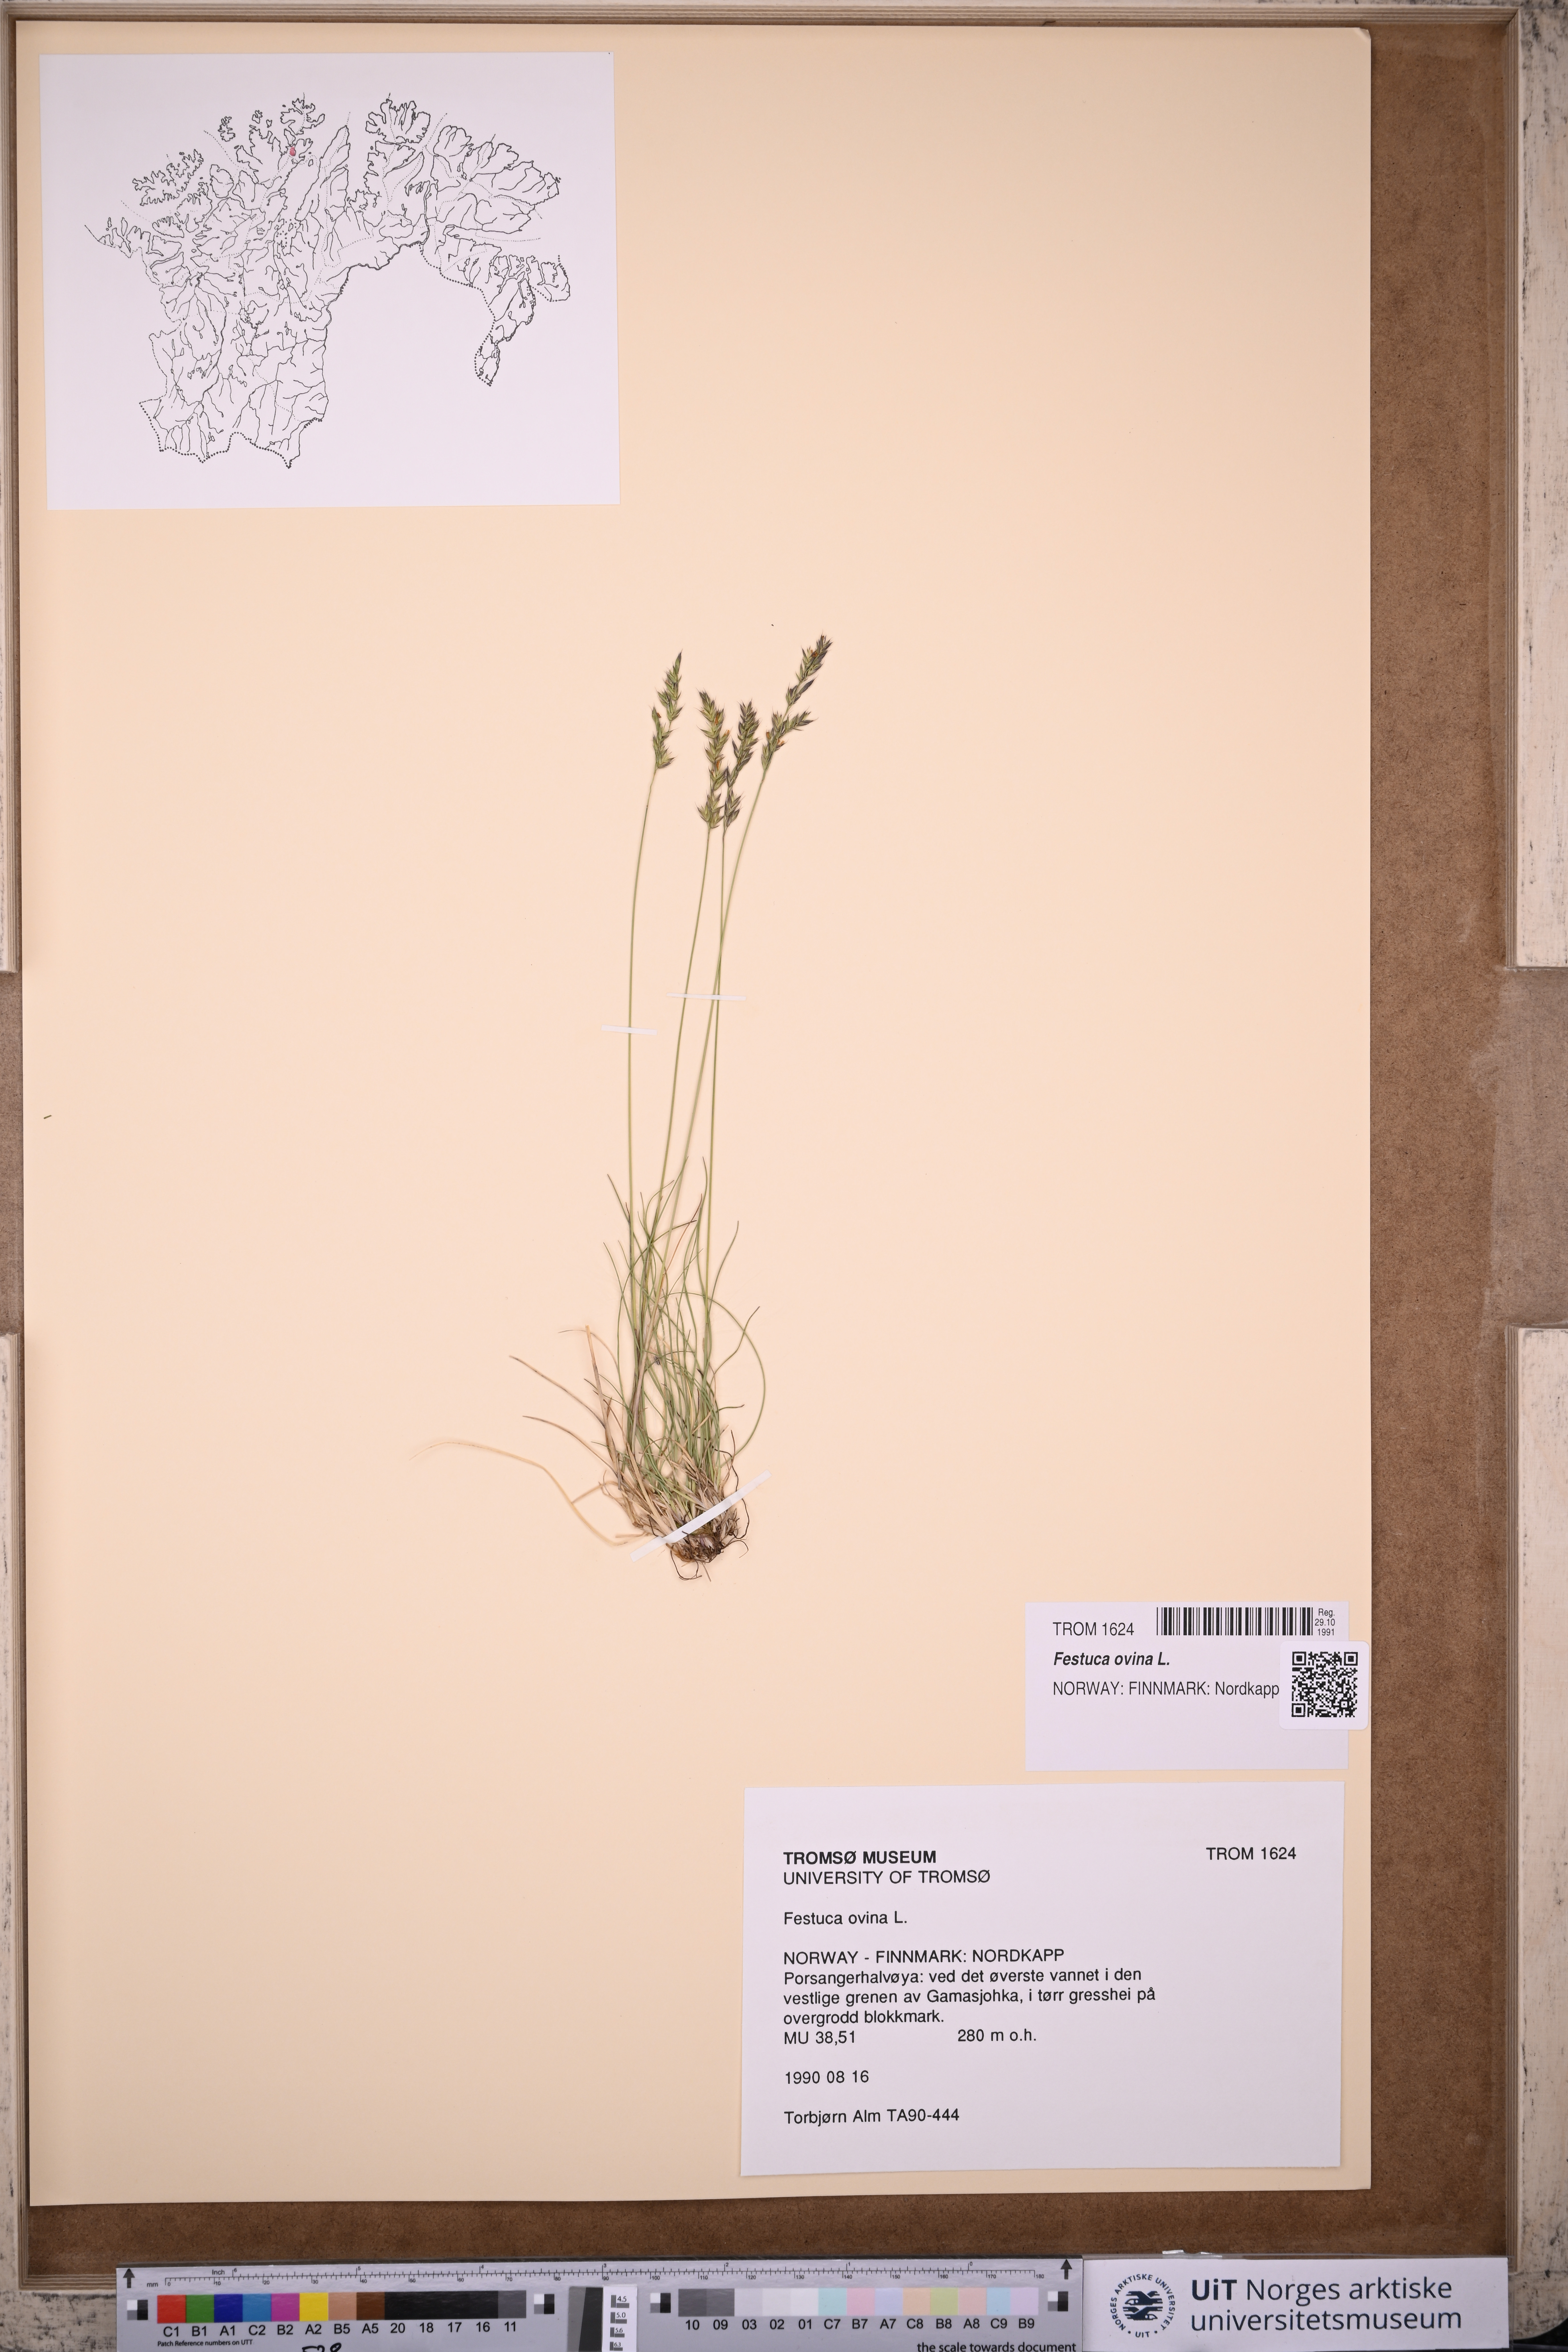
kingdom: Plantae
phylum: Tracheophyta
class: Liliopsida
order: Poales
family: Poaceae
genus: Festuca
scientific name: Festuca ovina
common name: Sheep fescue
